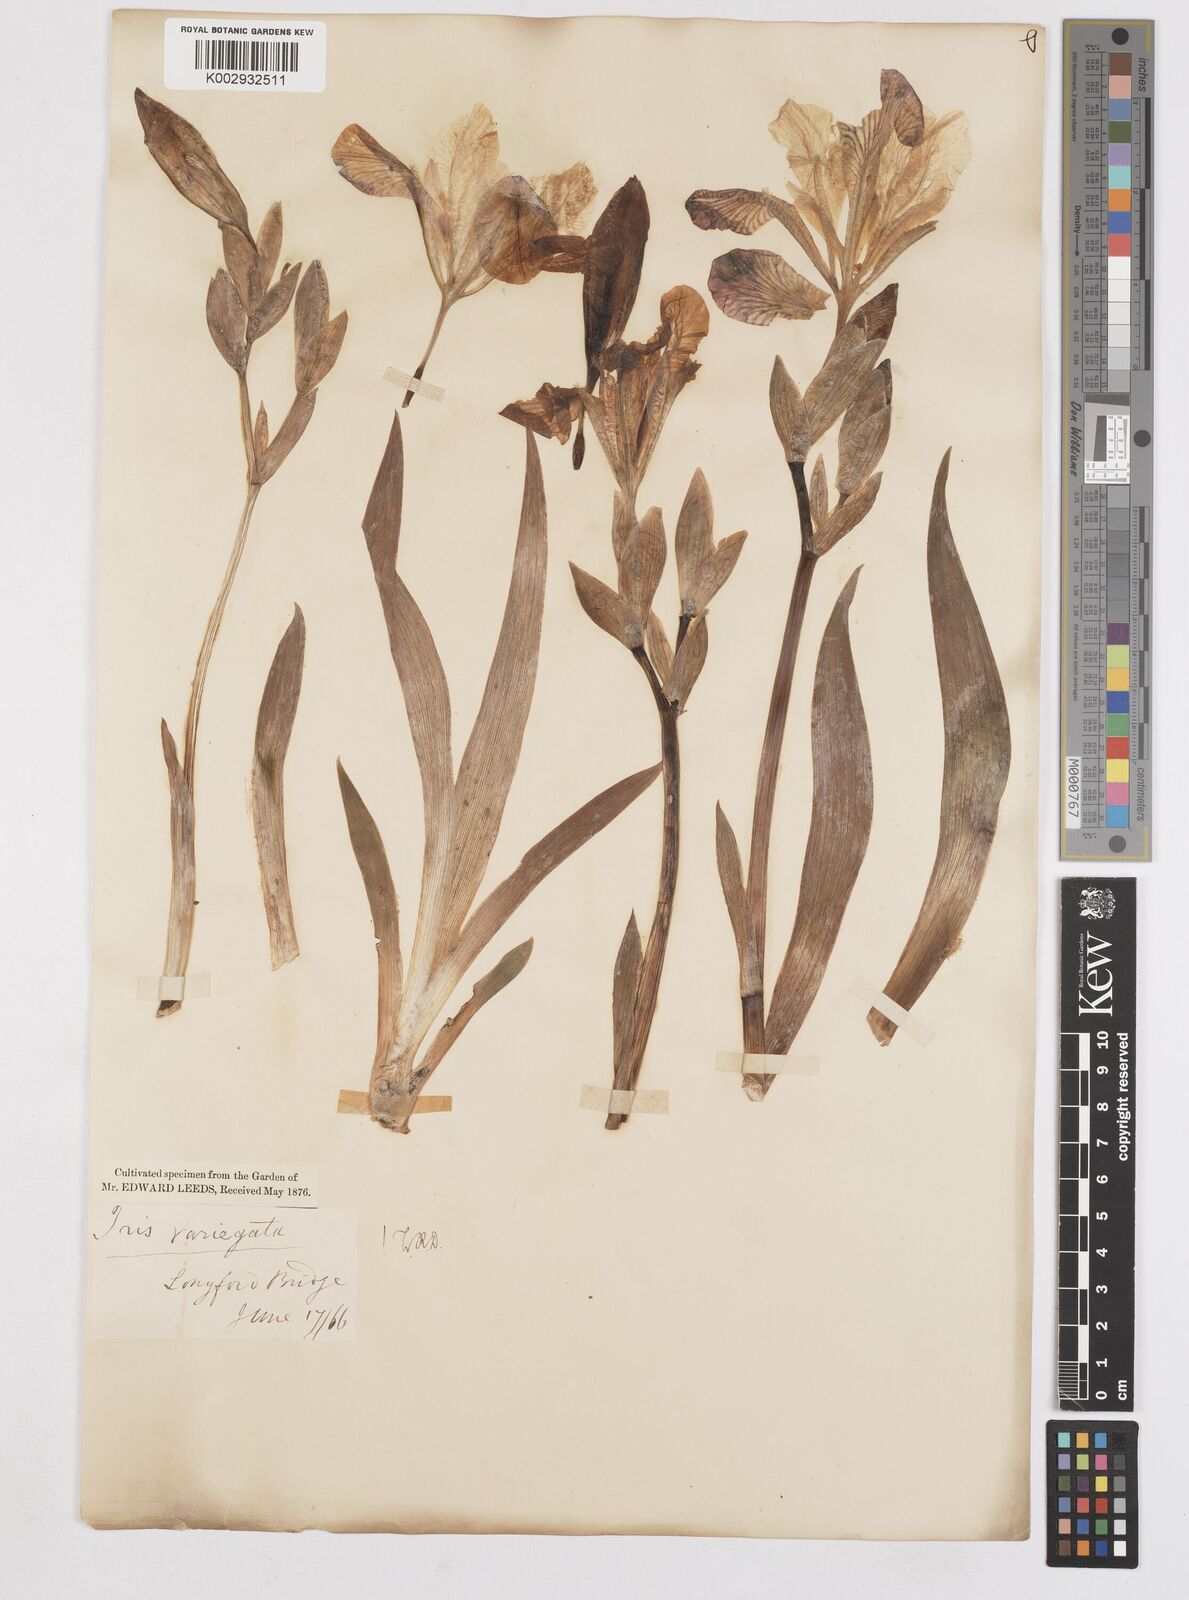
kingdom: Plantae
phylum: Tracheophyta
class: Liliopsida
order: Asparagales
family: Iridaceae
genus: Iris
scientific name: Iris variegata
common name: Hungarian iris
